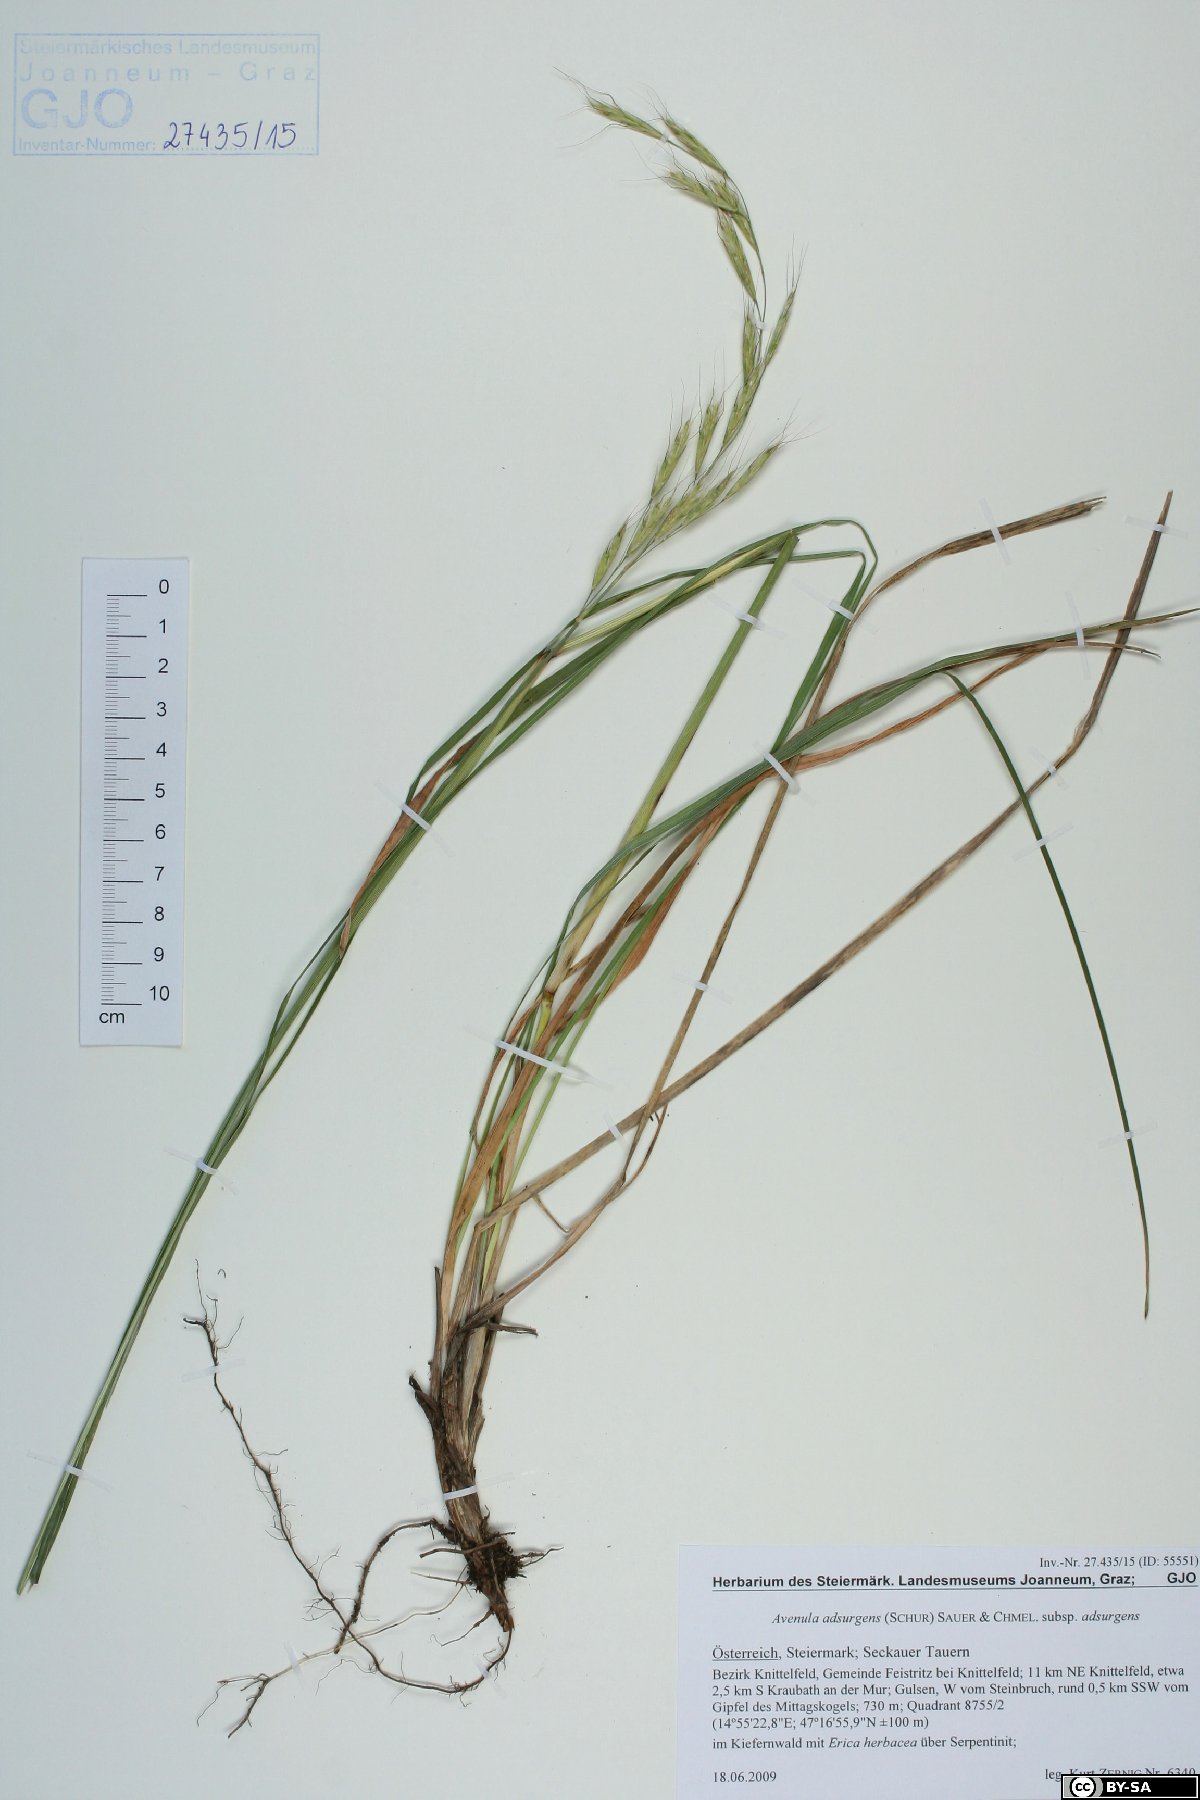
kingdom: Plantae
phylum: Tracheophyta
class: Liliopsida
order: Poales
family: Poaceae
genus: Helictochloa
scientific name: Helictochloa praeusta
